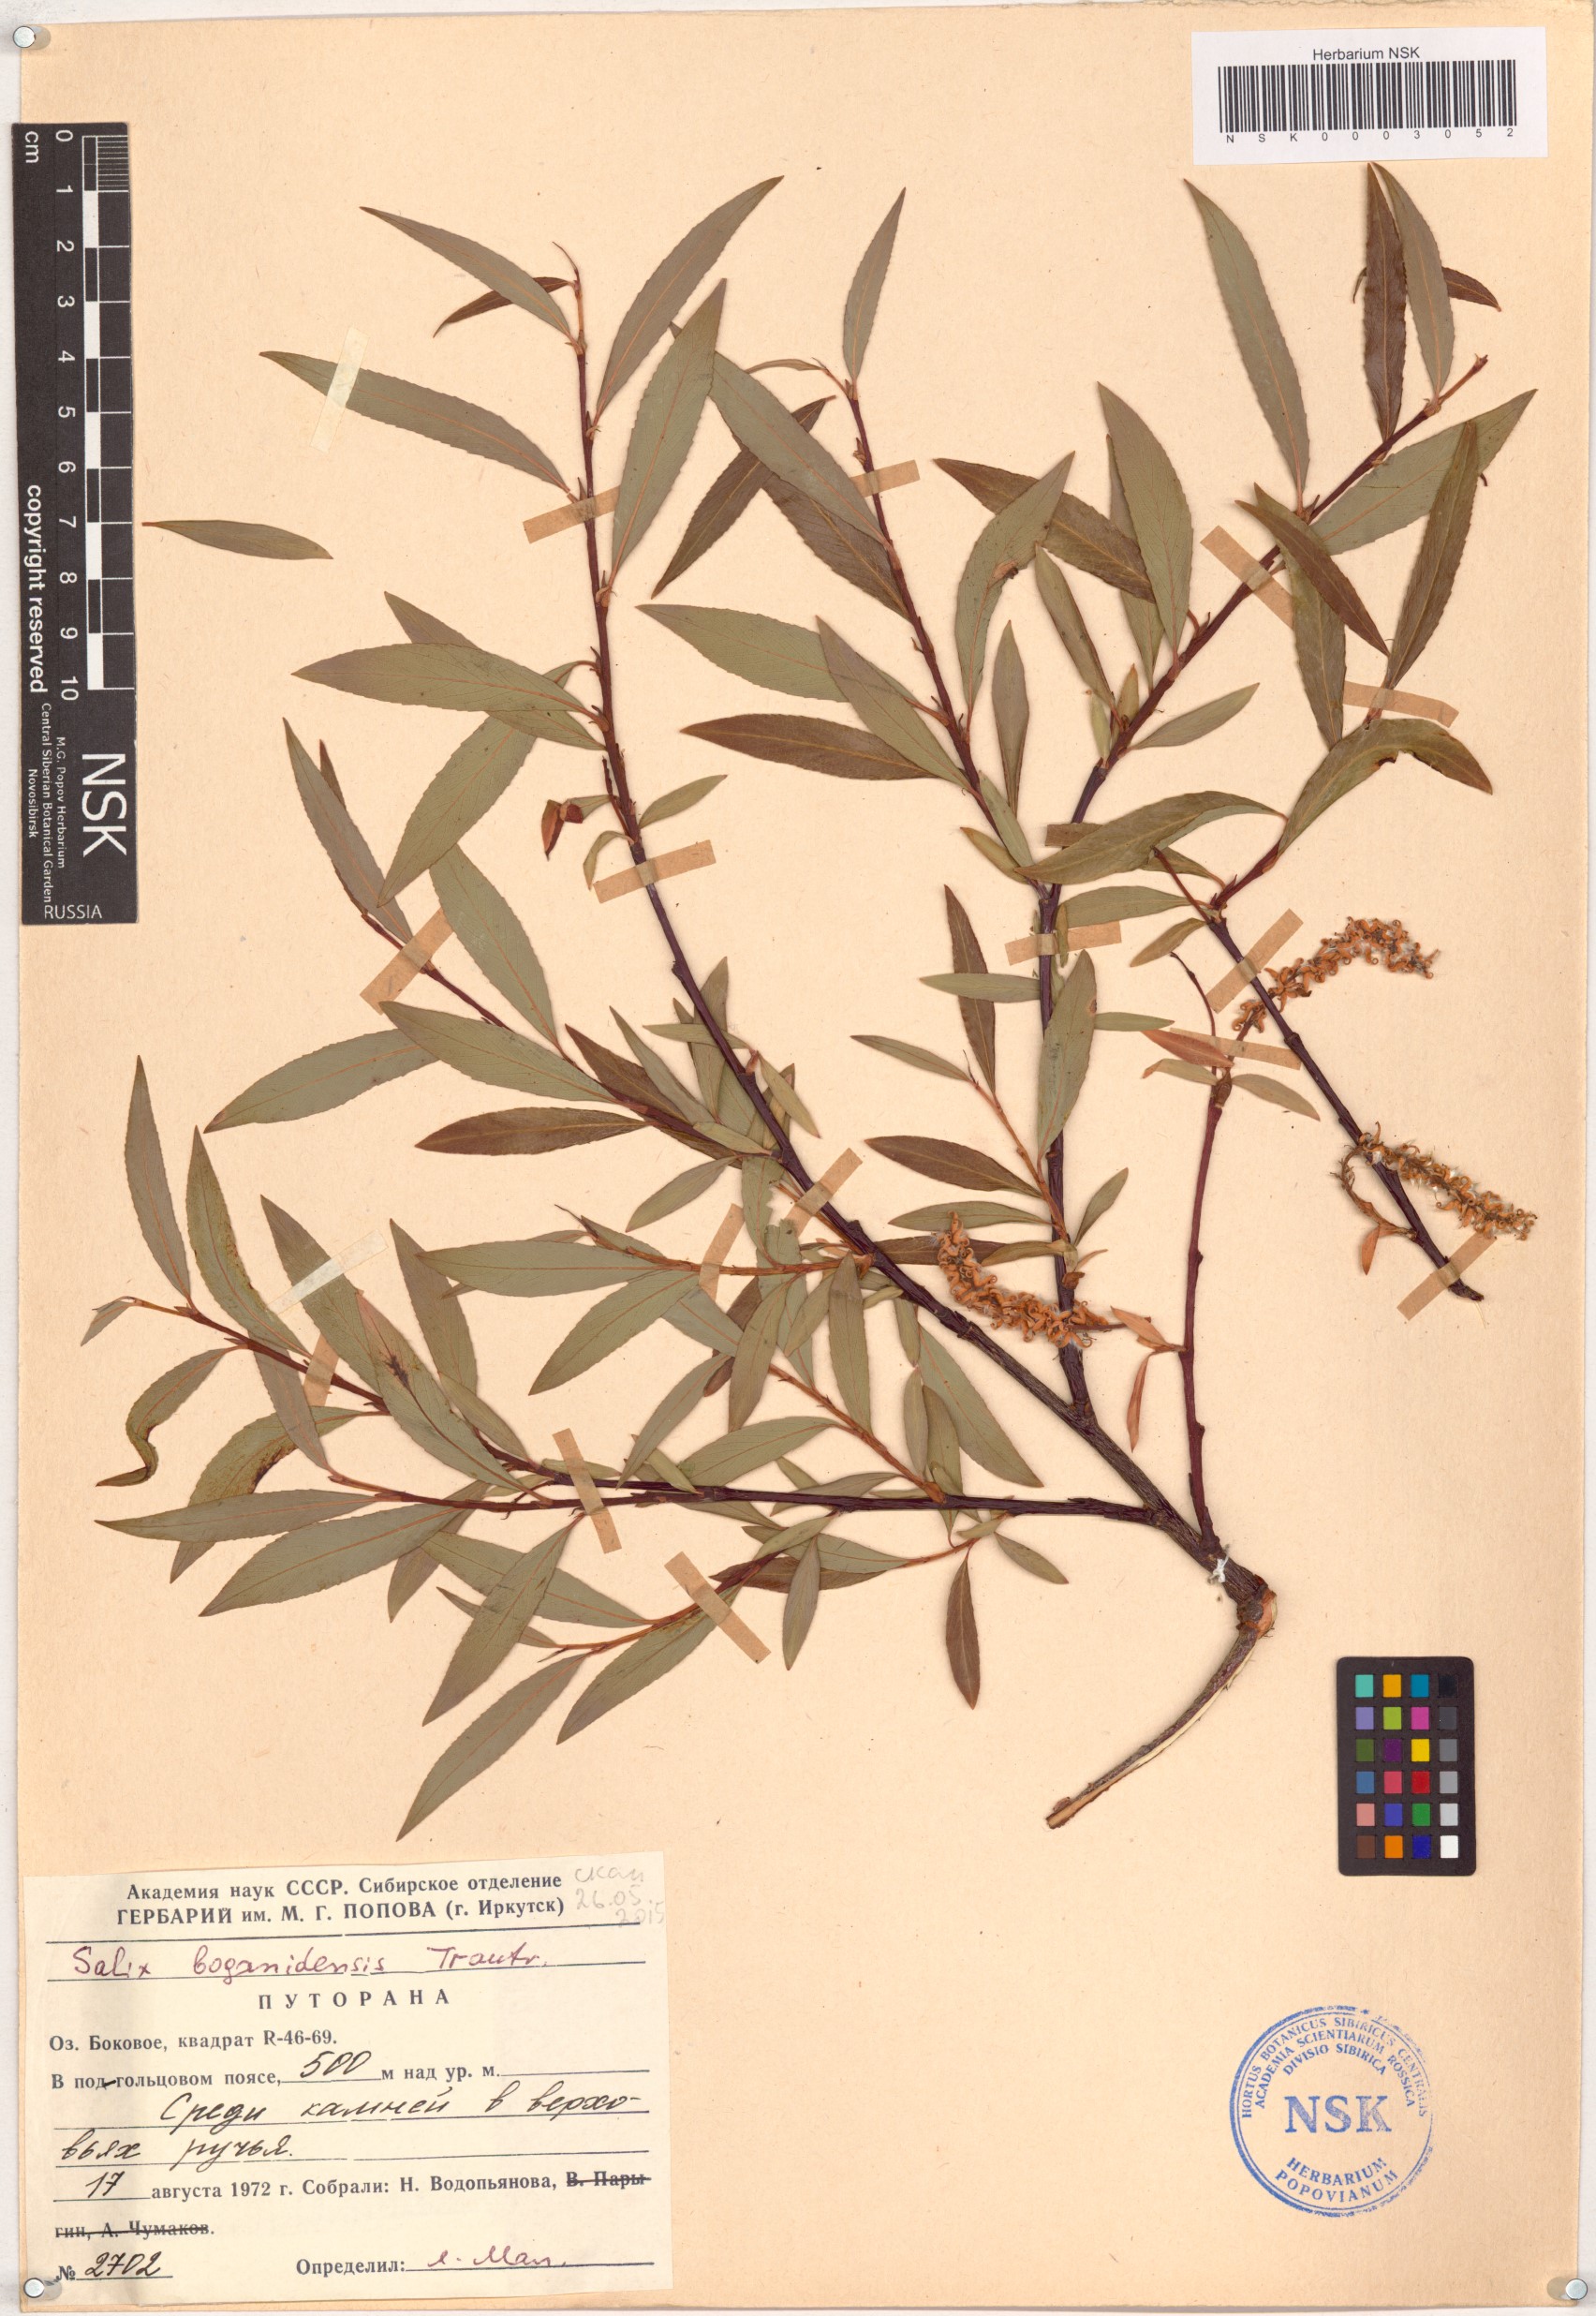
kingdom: Plantae
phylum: Tracheophyta
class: Magnoliopsida
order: Malpighiales
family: Salicaceae
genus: Salix
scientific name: Salix boganidensis
